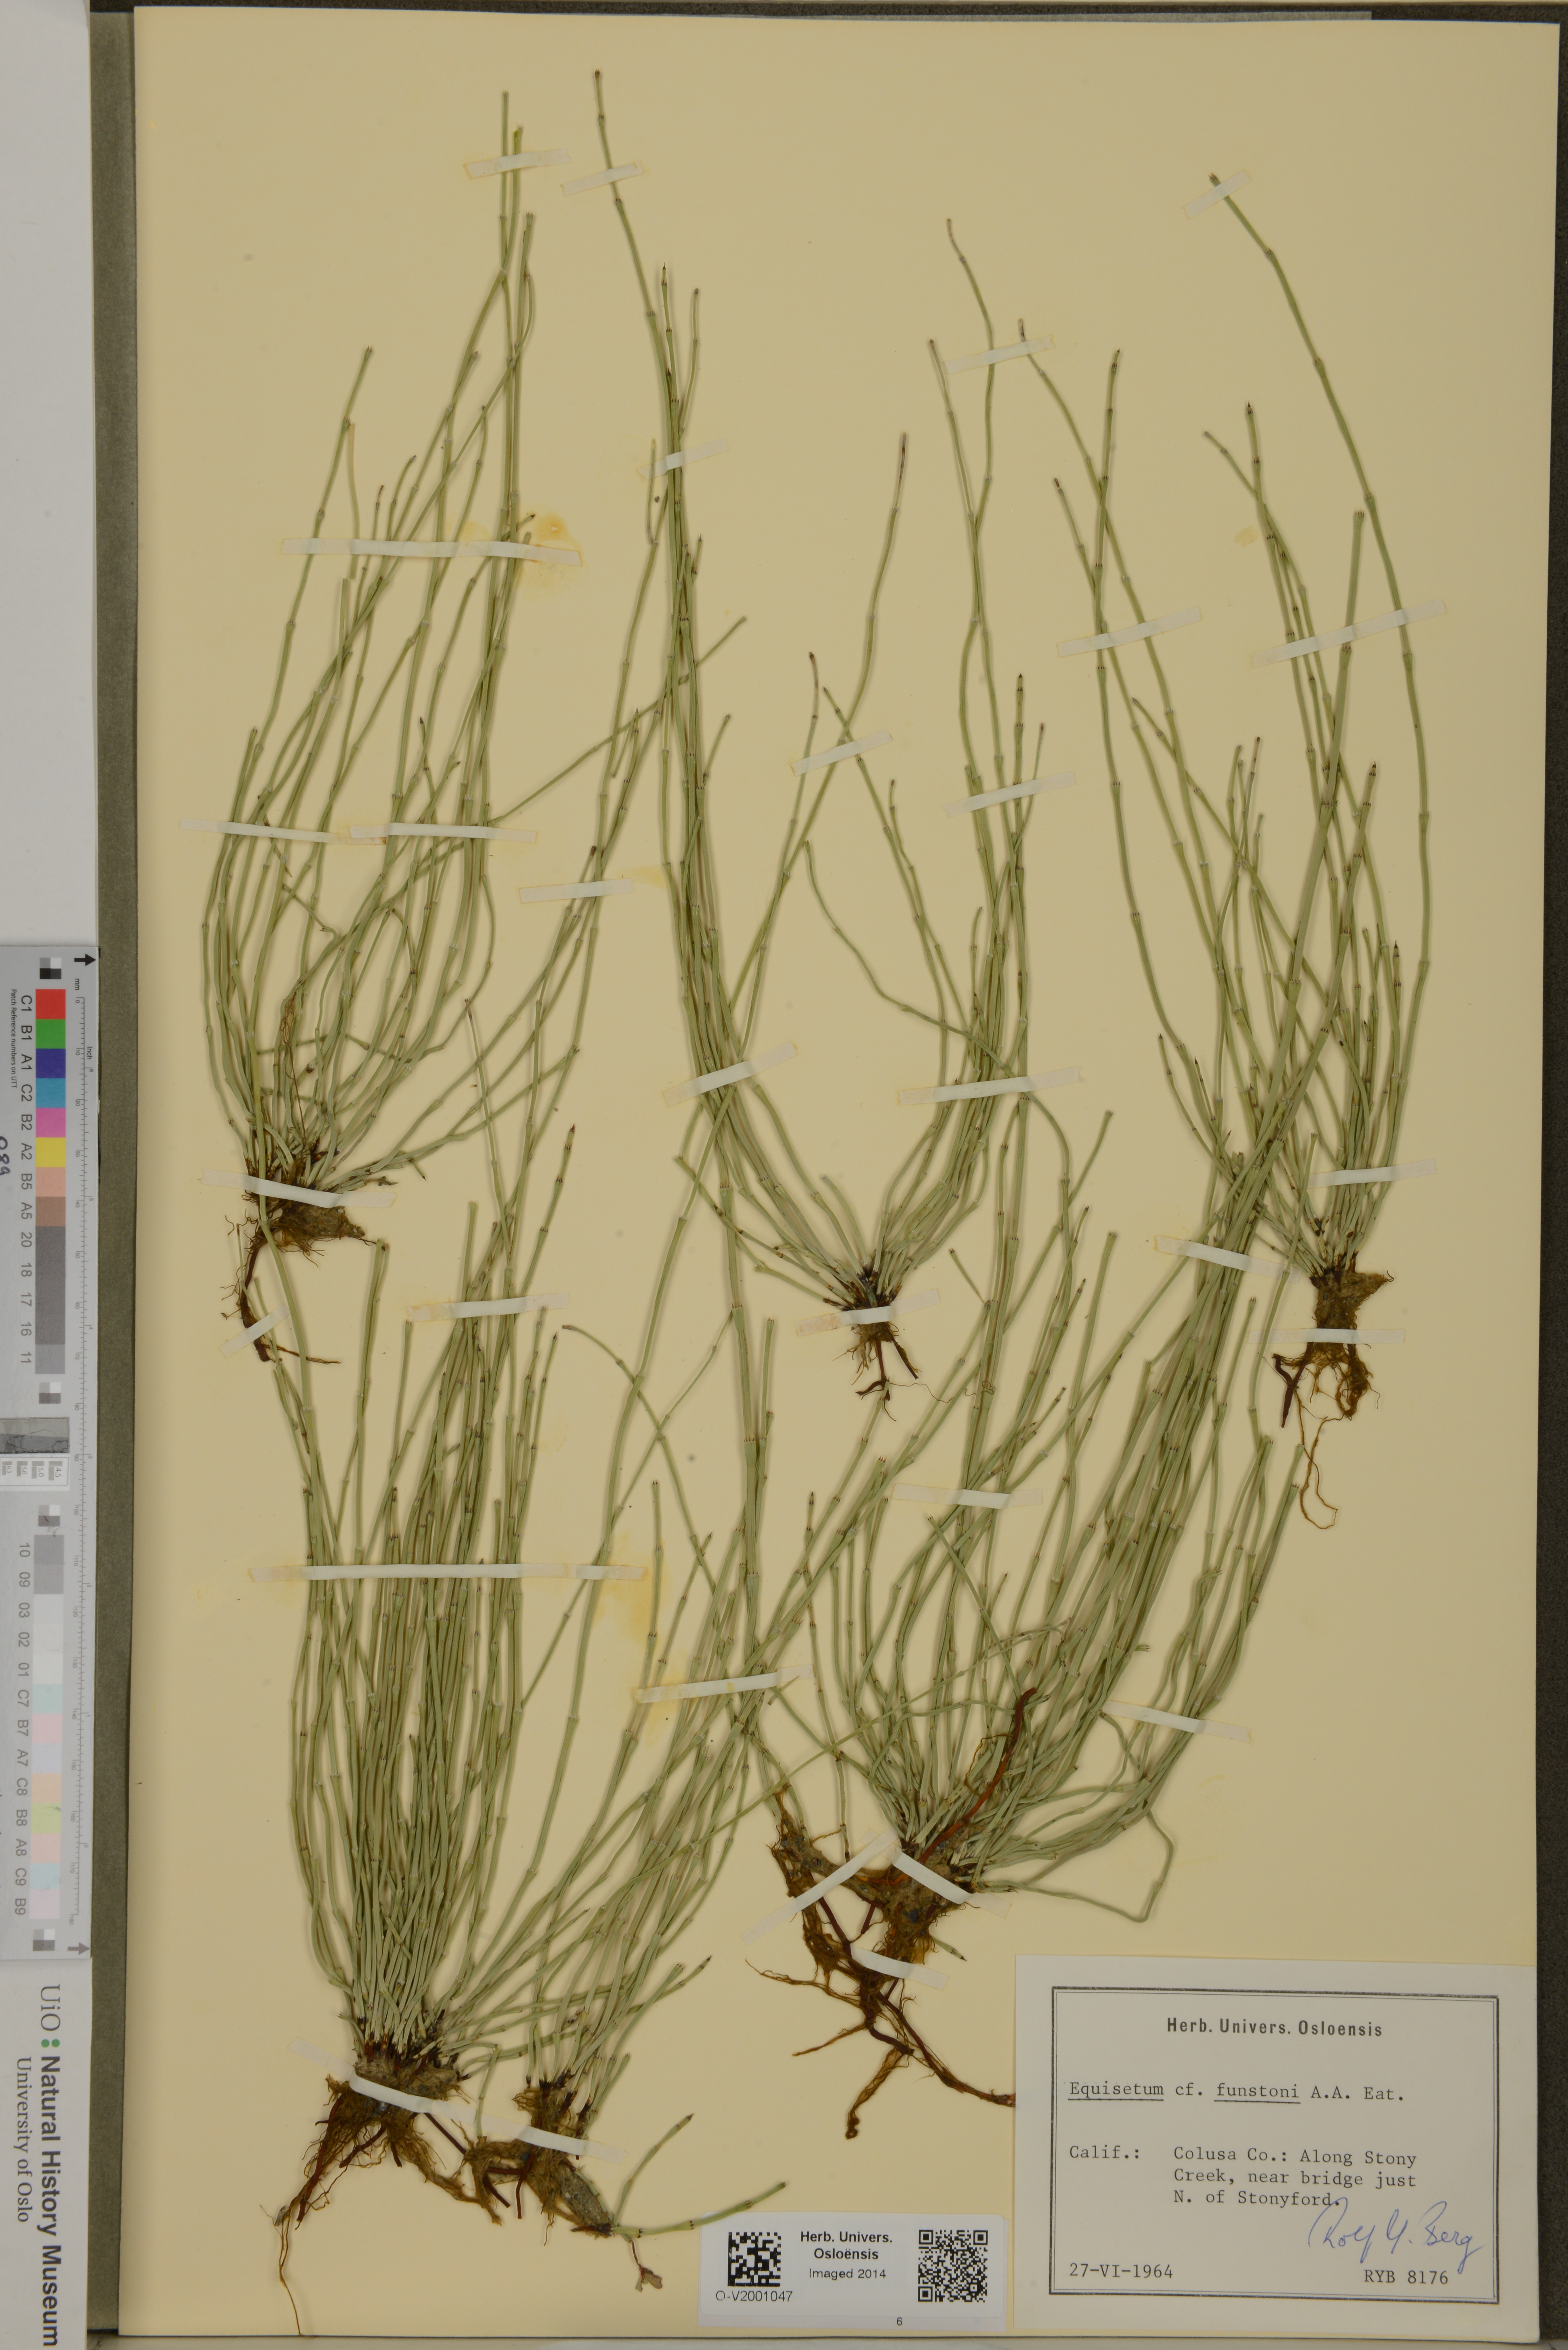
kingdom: Plantae
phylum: Tracheophyta
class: Polypodiopsida
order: Equisetales
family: Equisetaceae
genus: Equisetum
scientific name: Equisetum laevigatum
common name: Smooth scouring-rush
